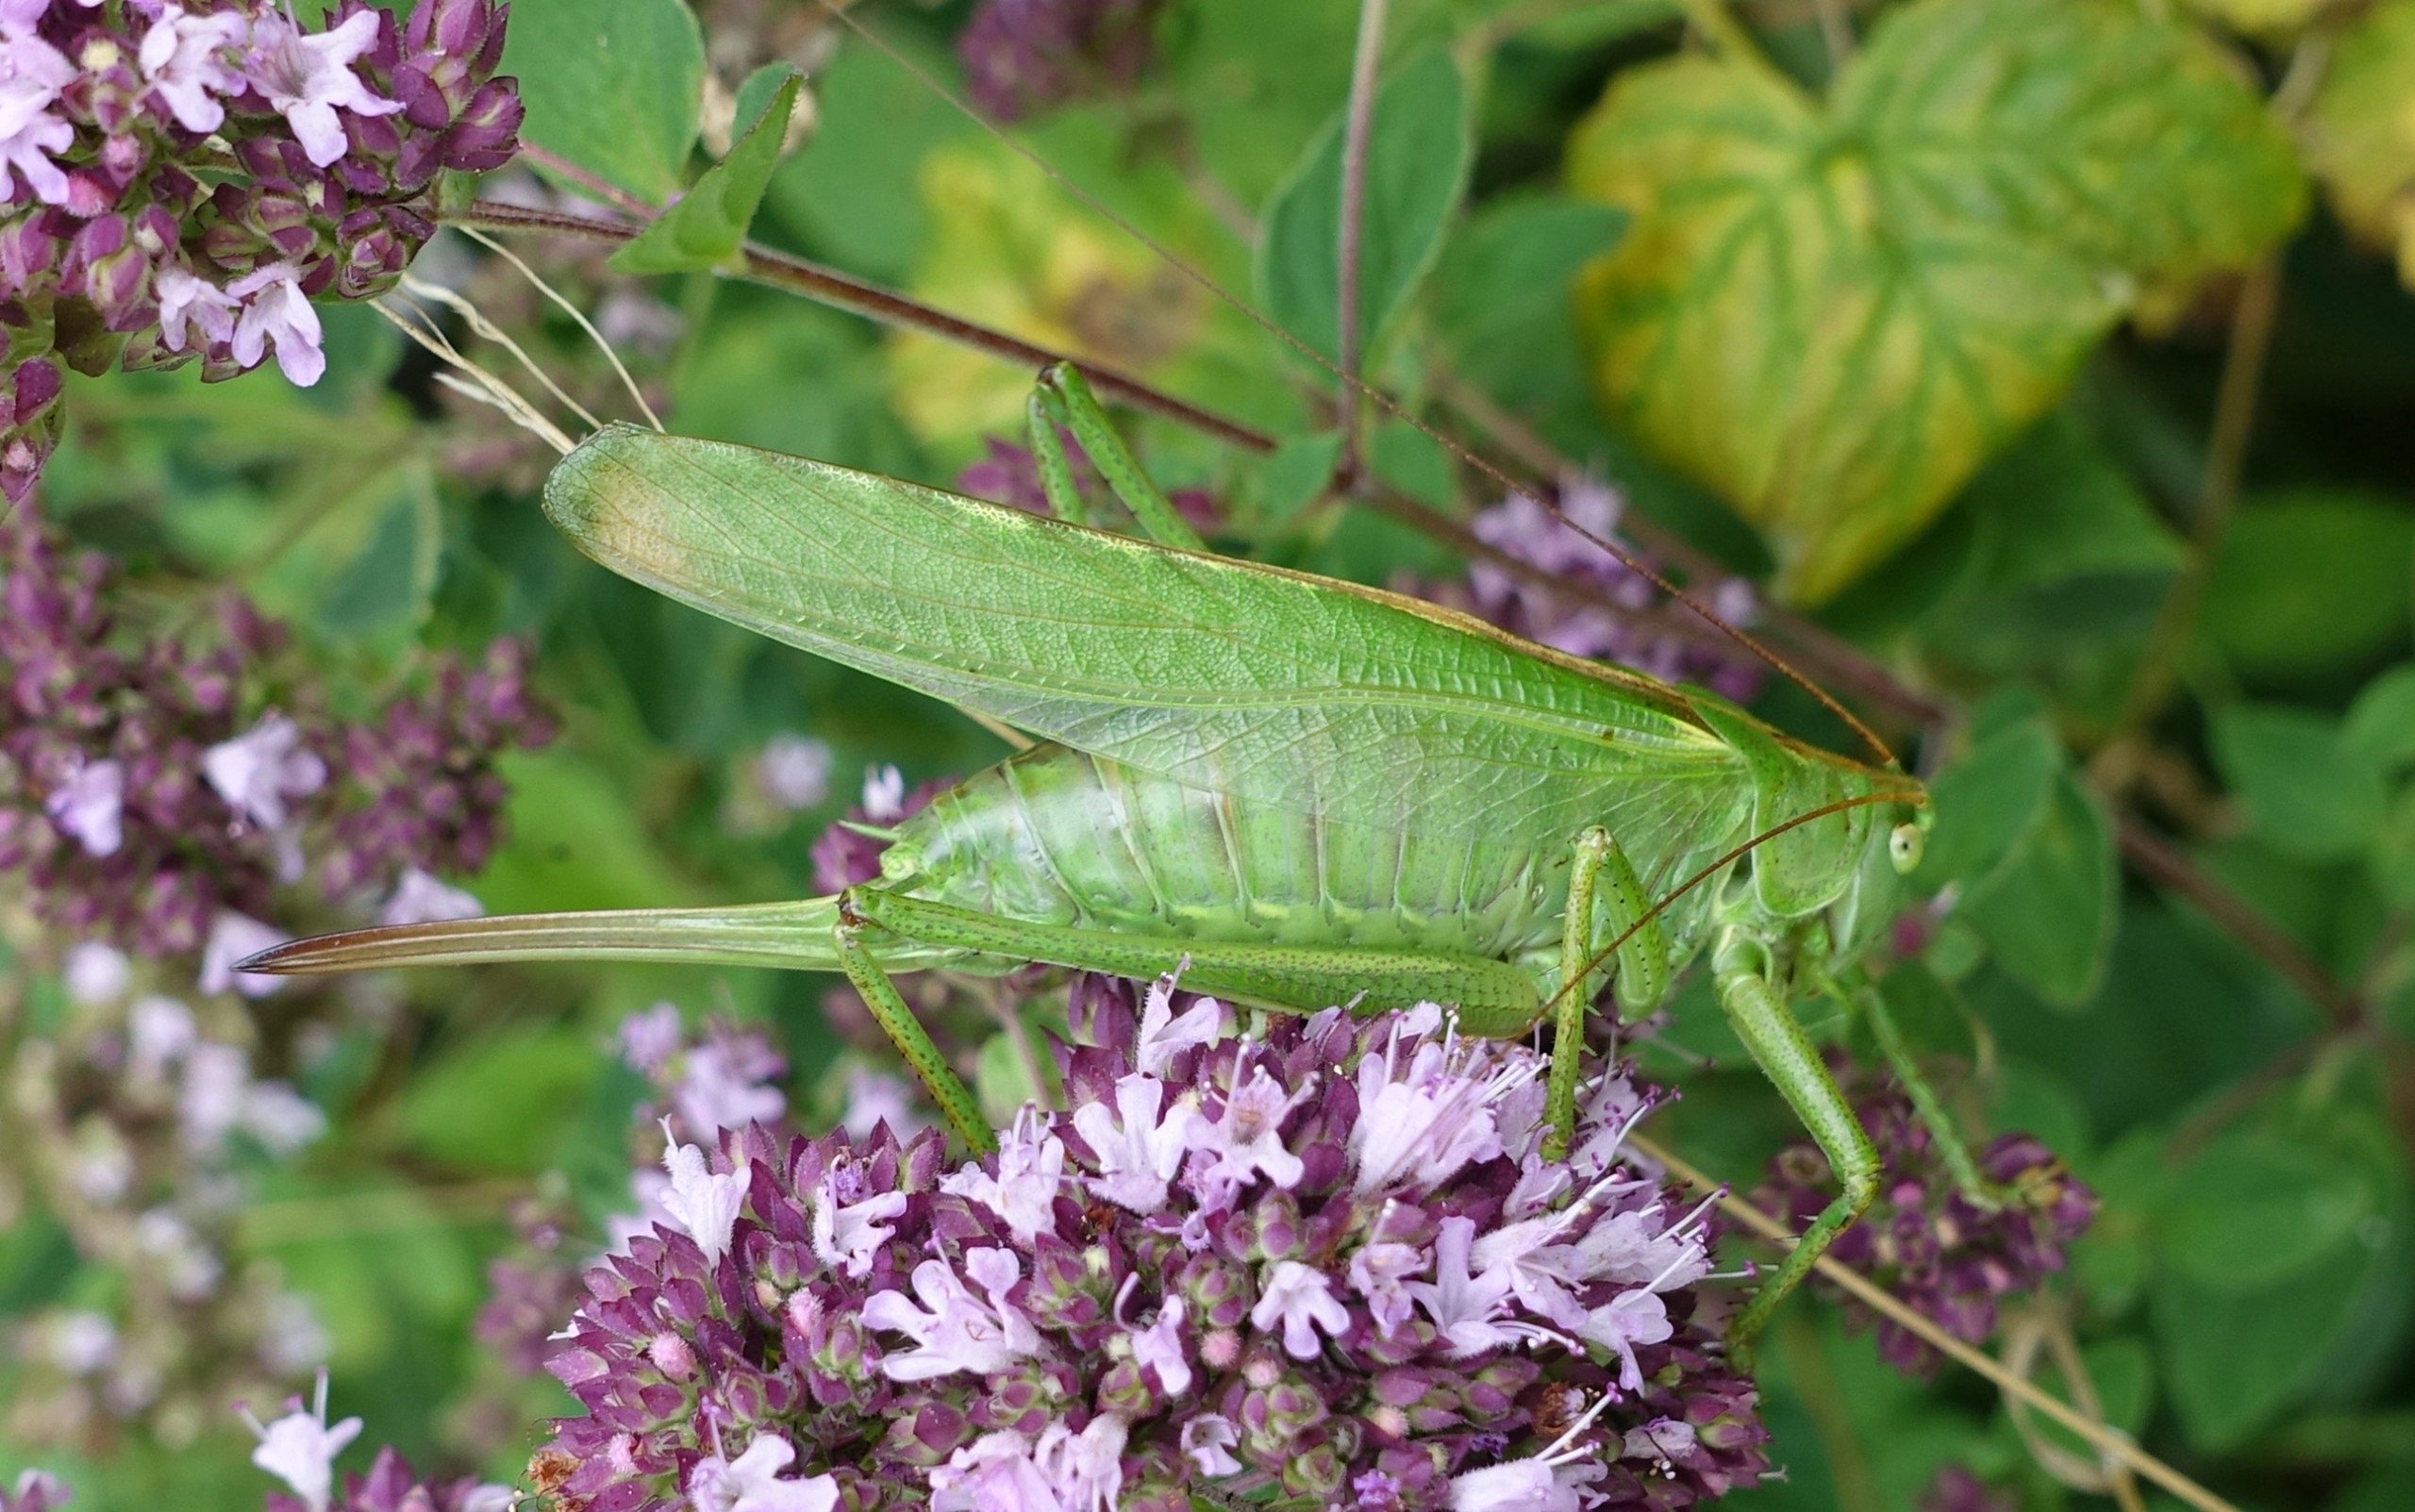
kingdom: Animalia
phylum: Arthropoda
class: Insecta
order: Orthoptera
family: Tettigoniidae
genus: Tettigonia
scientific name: Tettigonia viridissima
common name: Stor grøn løvgræshoppe
